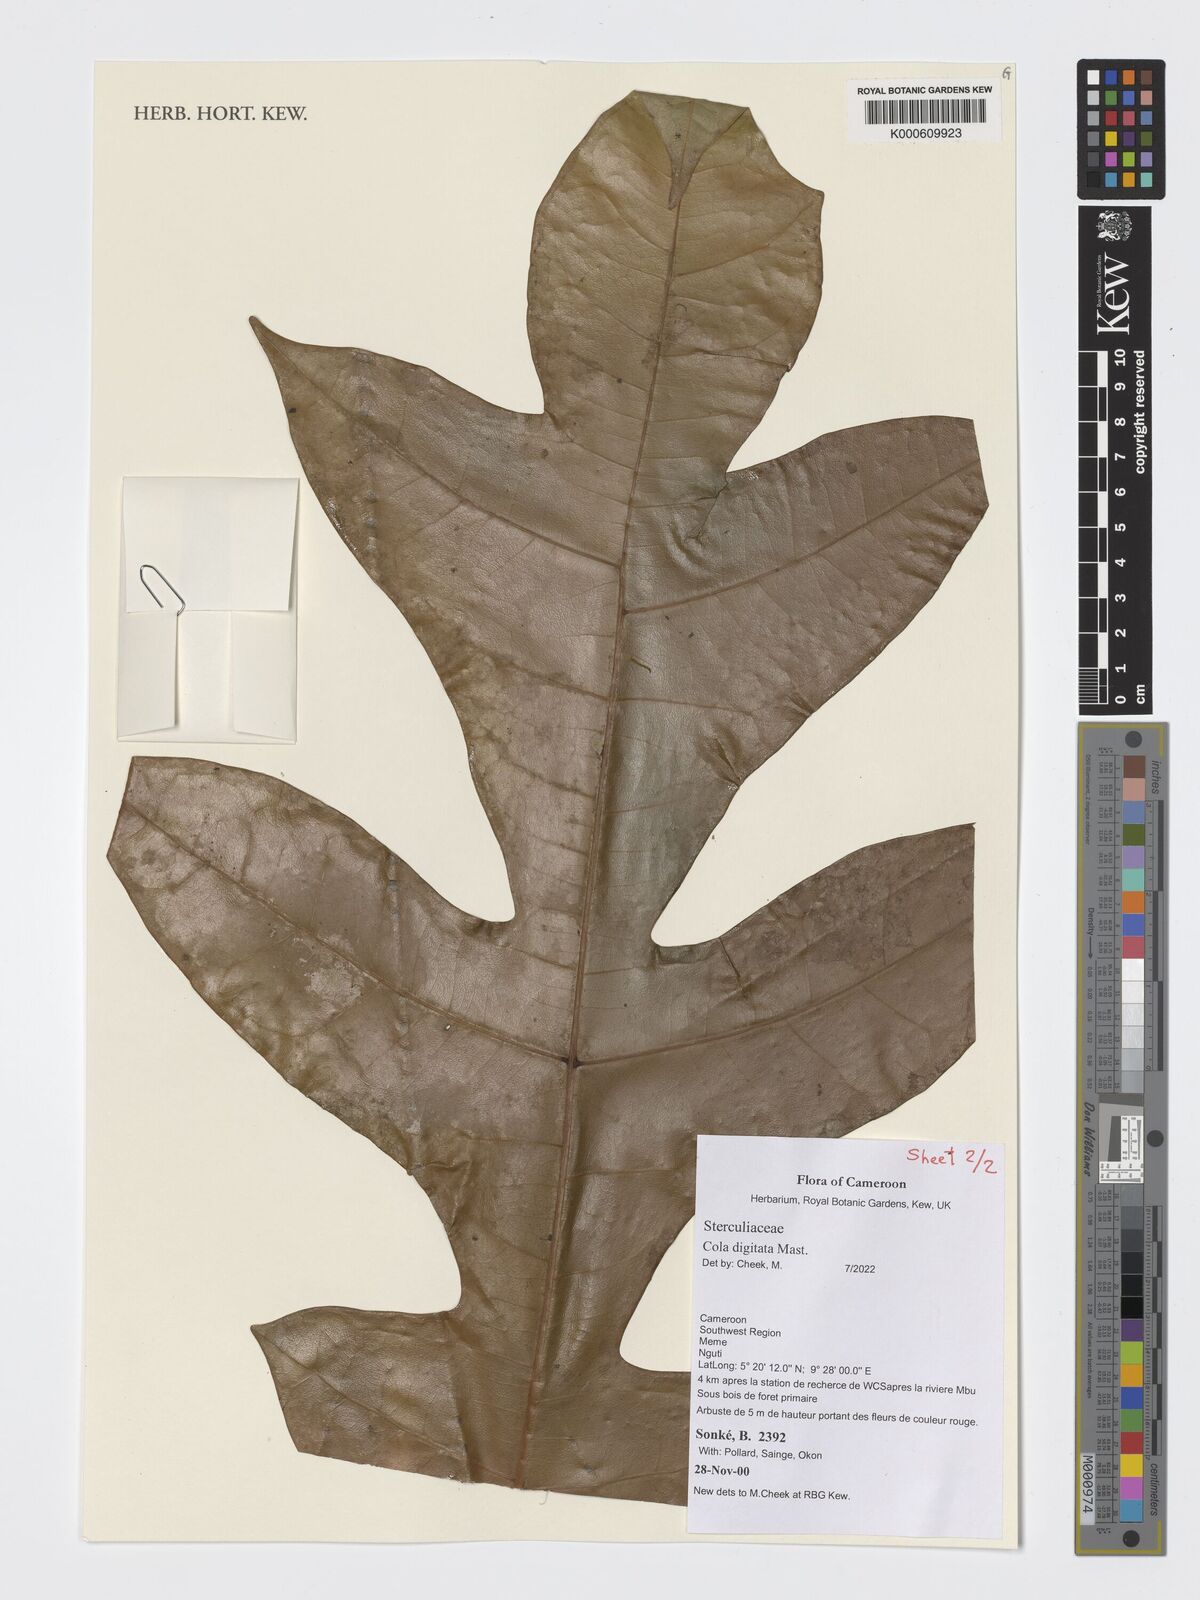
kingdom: Plantae
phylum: Tracheophyta
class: Magnoliopsida
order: Malvales
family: Malvaceae
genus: Cola
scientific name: Cola digitata
